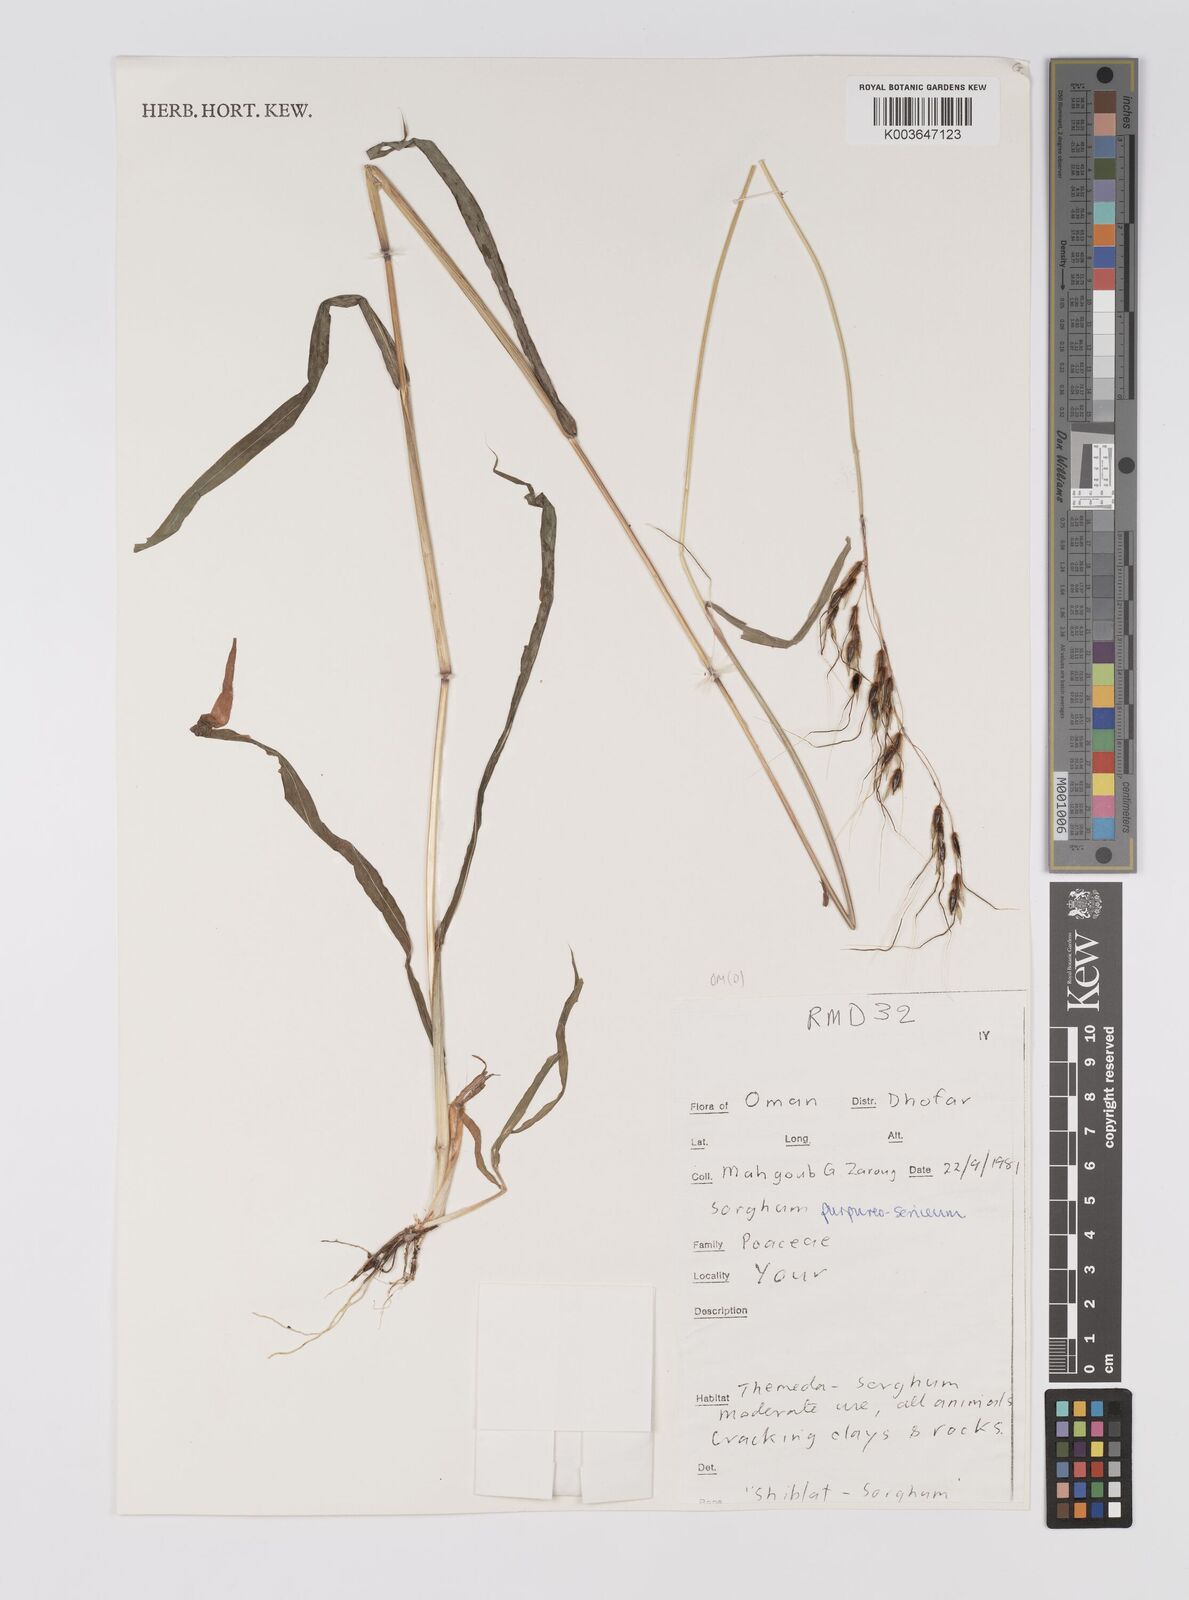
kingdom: Plantae
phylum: Tracheophyta
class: Liliopsida
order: Poales
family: Poaceae
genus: Sarga
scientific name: Sarga purpureosericea
